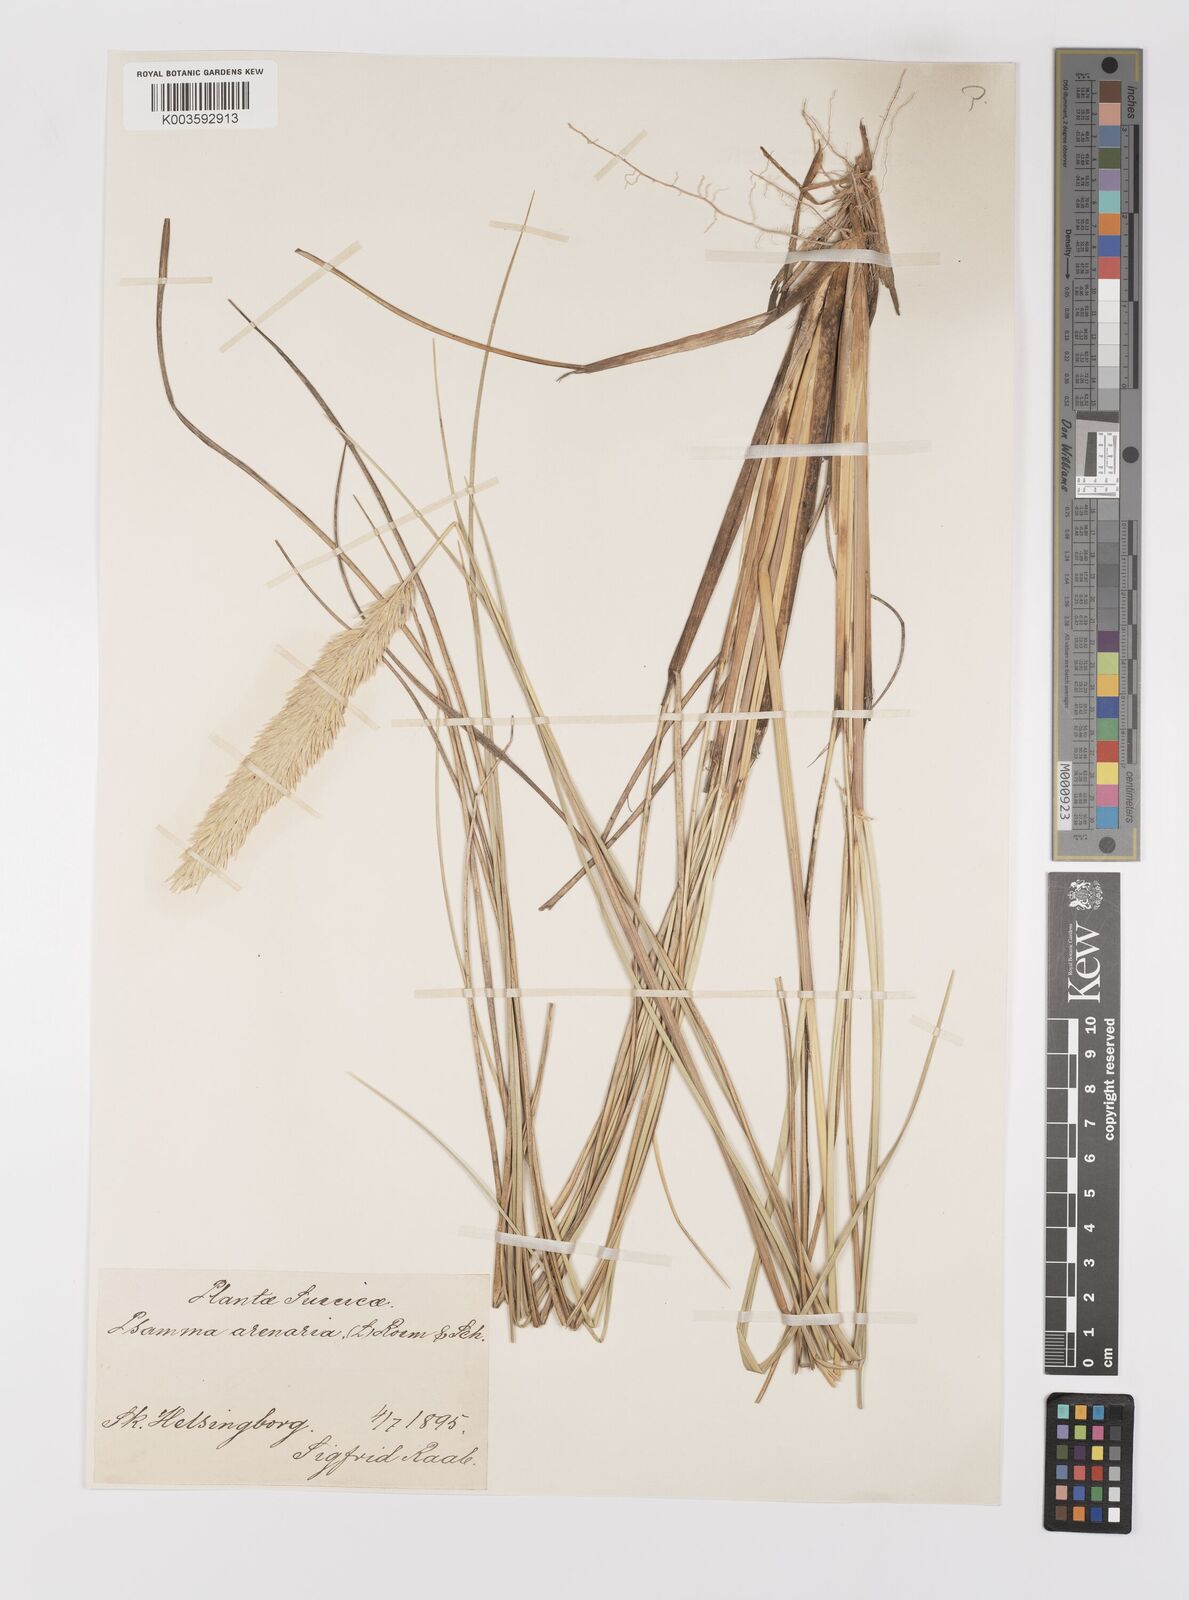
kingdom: Plantae
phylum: Tracheophyta
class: Liliopsida
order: Poales
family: Poaceae
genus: Calamagrostis
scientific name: Calamagrostis arenaria
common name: European beachgrass
